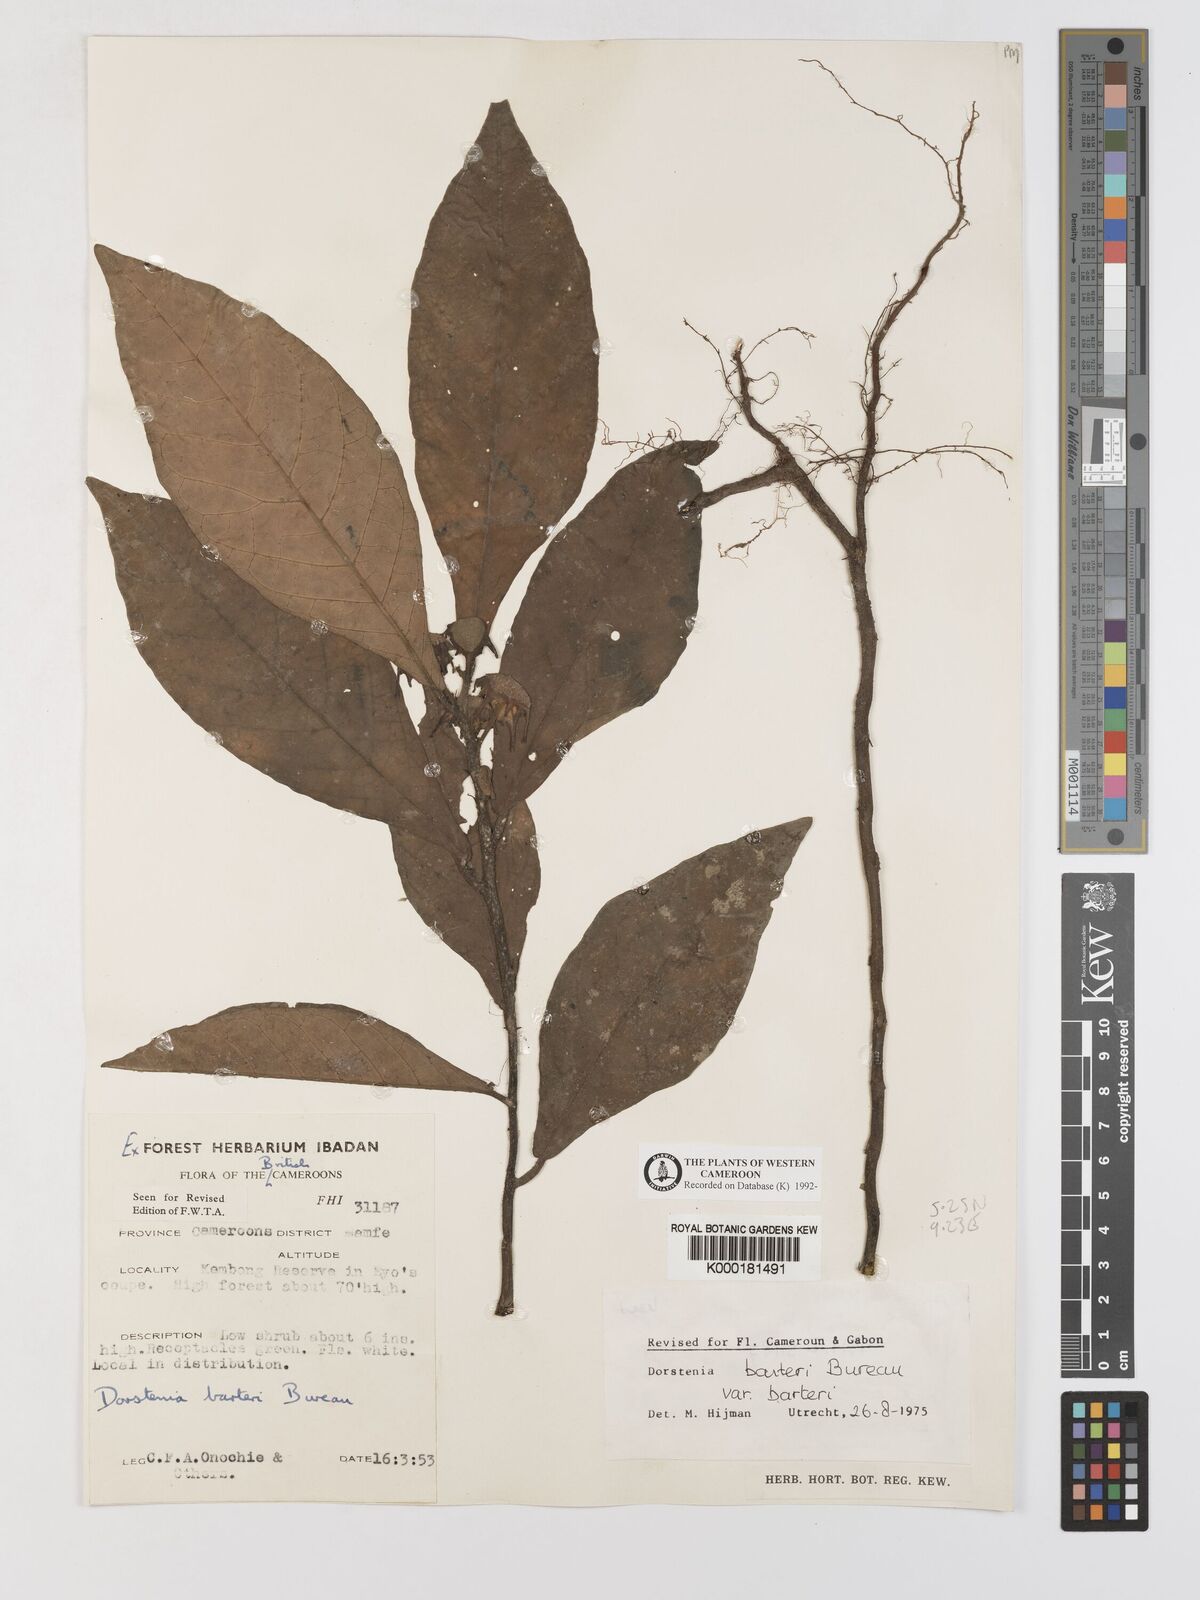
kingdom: Plantae
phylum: Tracheophyta
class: Magnoliopsida
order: Rosales
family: Moraceae
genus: Dorstenia
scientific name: Dorstenia barteri
